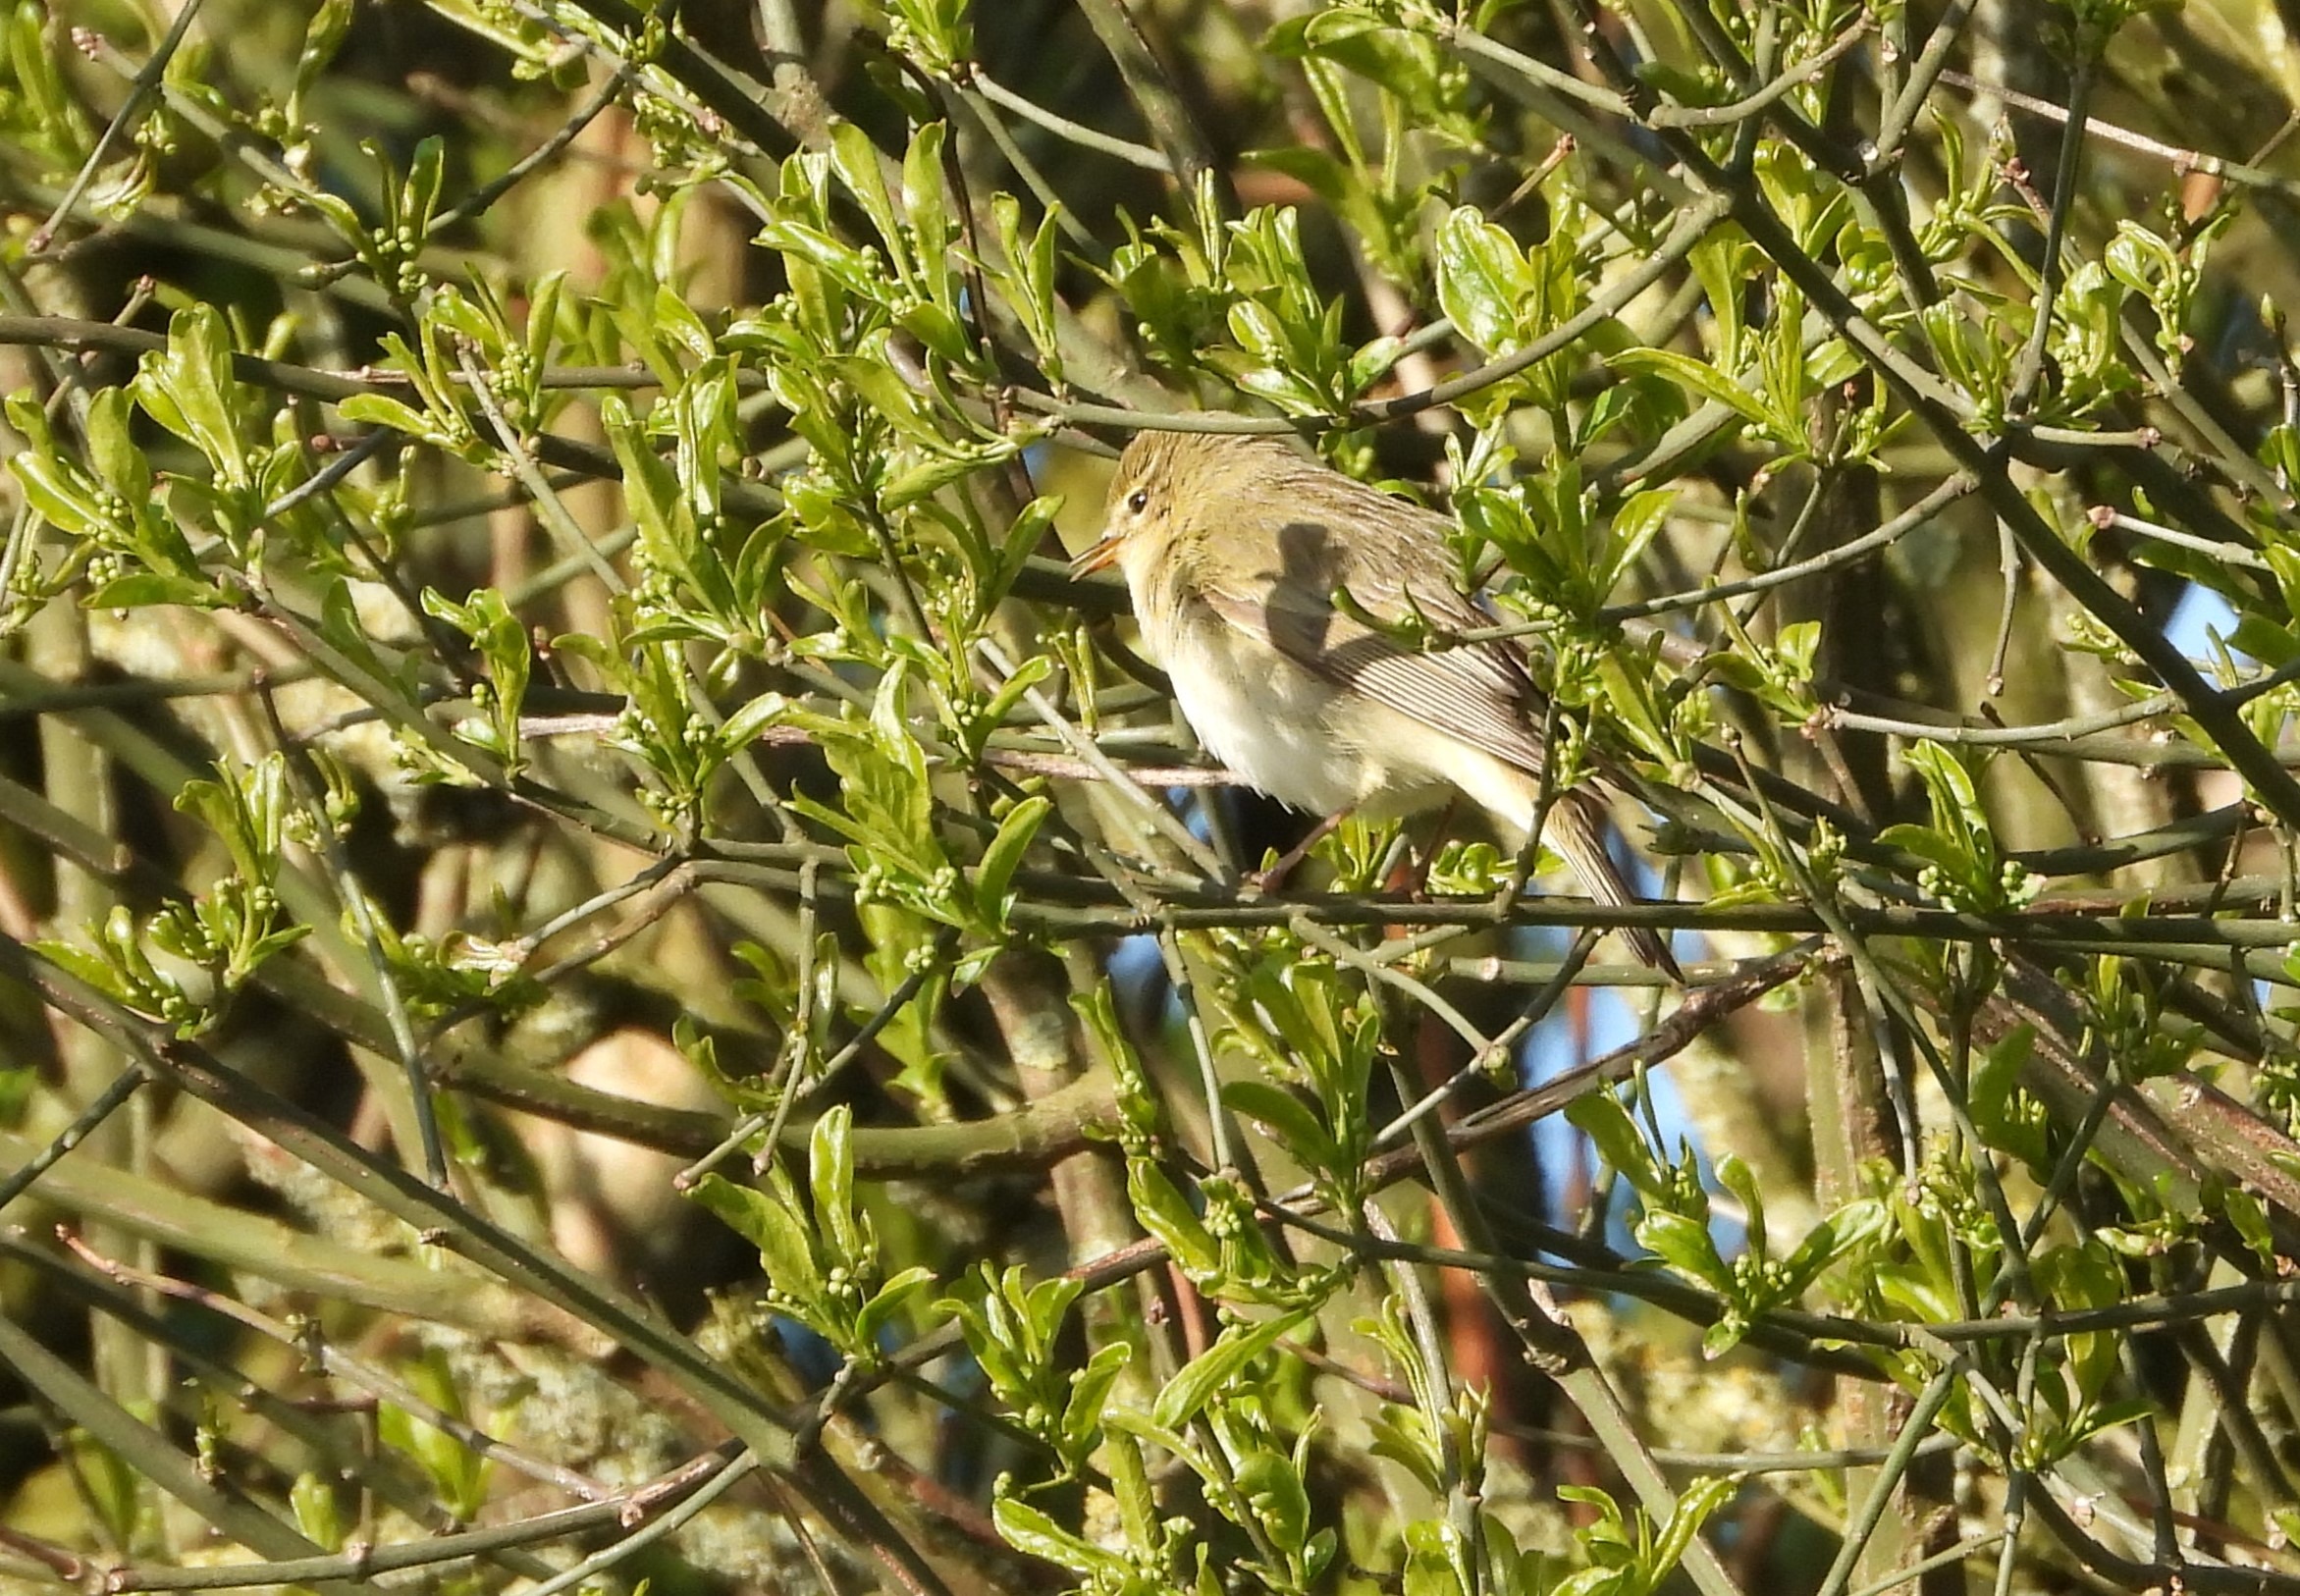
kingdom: Animalia
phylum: Chordata
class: Aves
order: Passeriformes
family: Phylloscopidae
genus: Phylloscopus
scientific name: Phylloscopus trochilus
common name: Løvsanger
